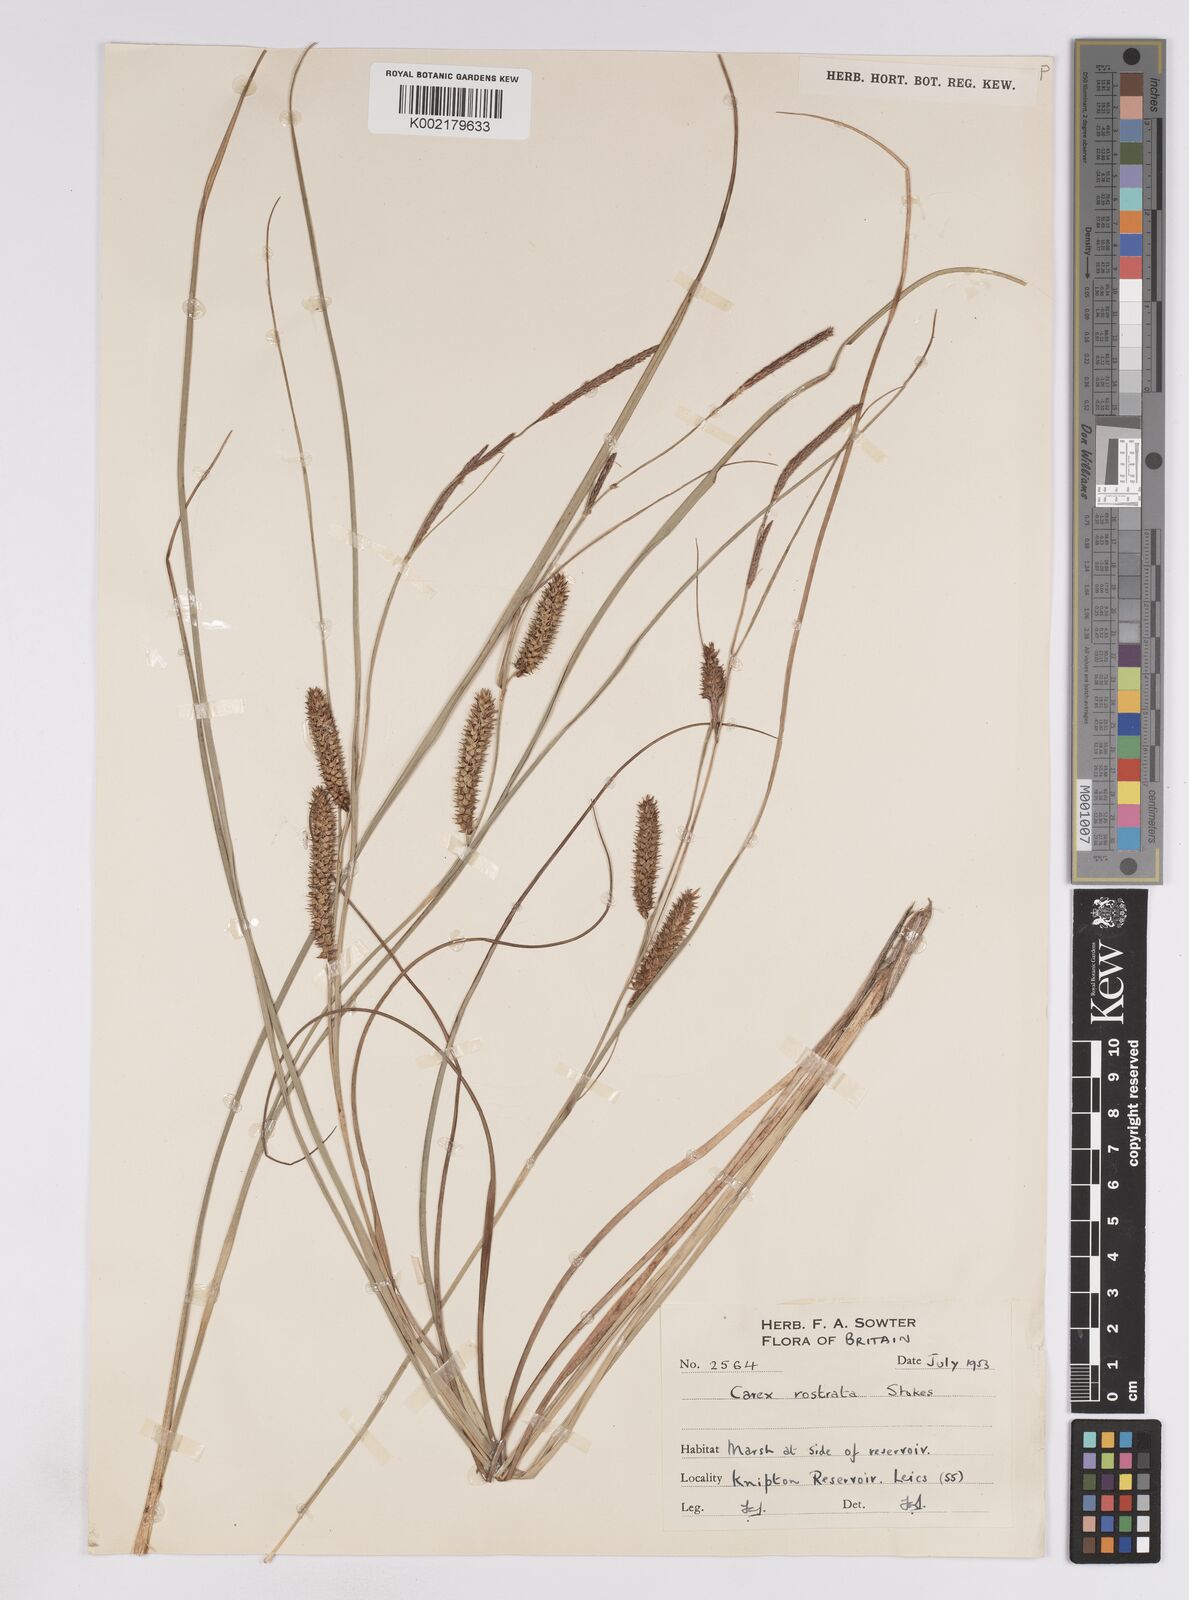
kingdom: Plantae
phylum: Tracheophyta
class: Liliopsida
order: Poales
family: Cyperaceae
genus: Carex
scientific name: Carex rostrata
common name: Bottle sedge
